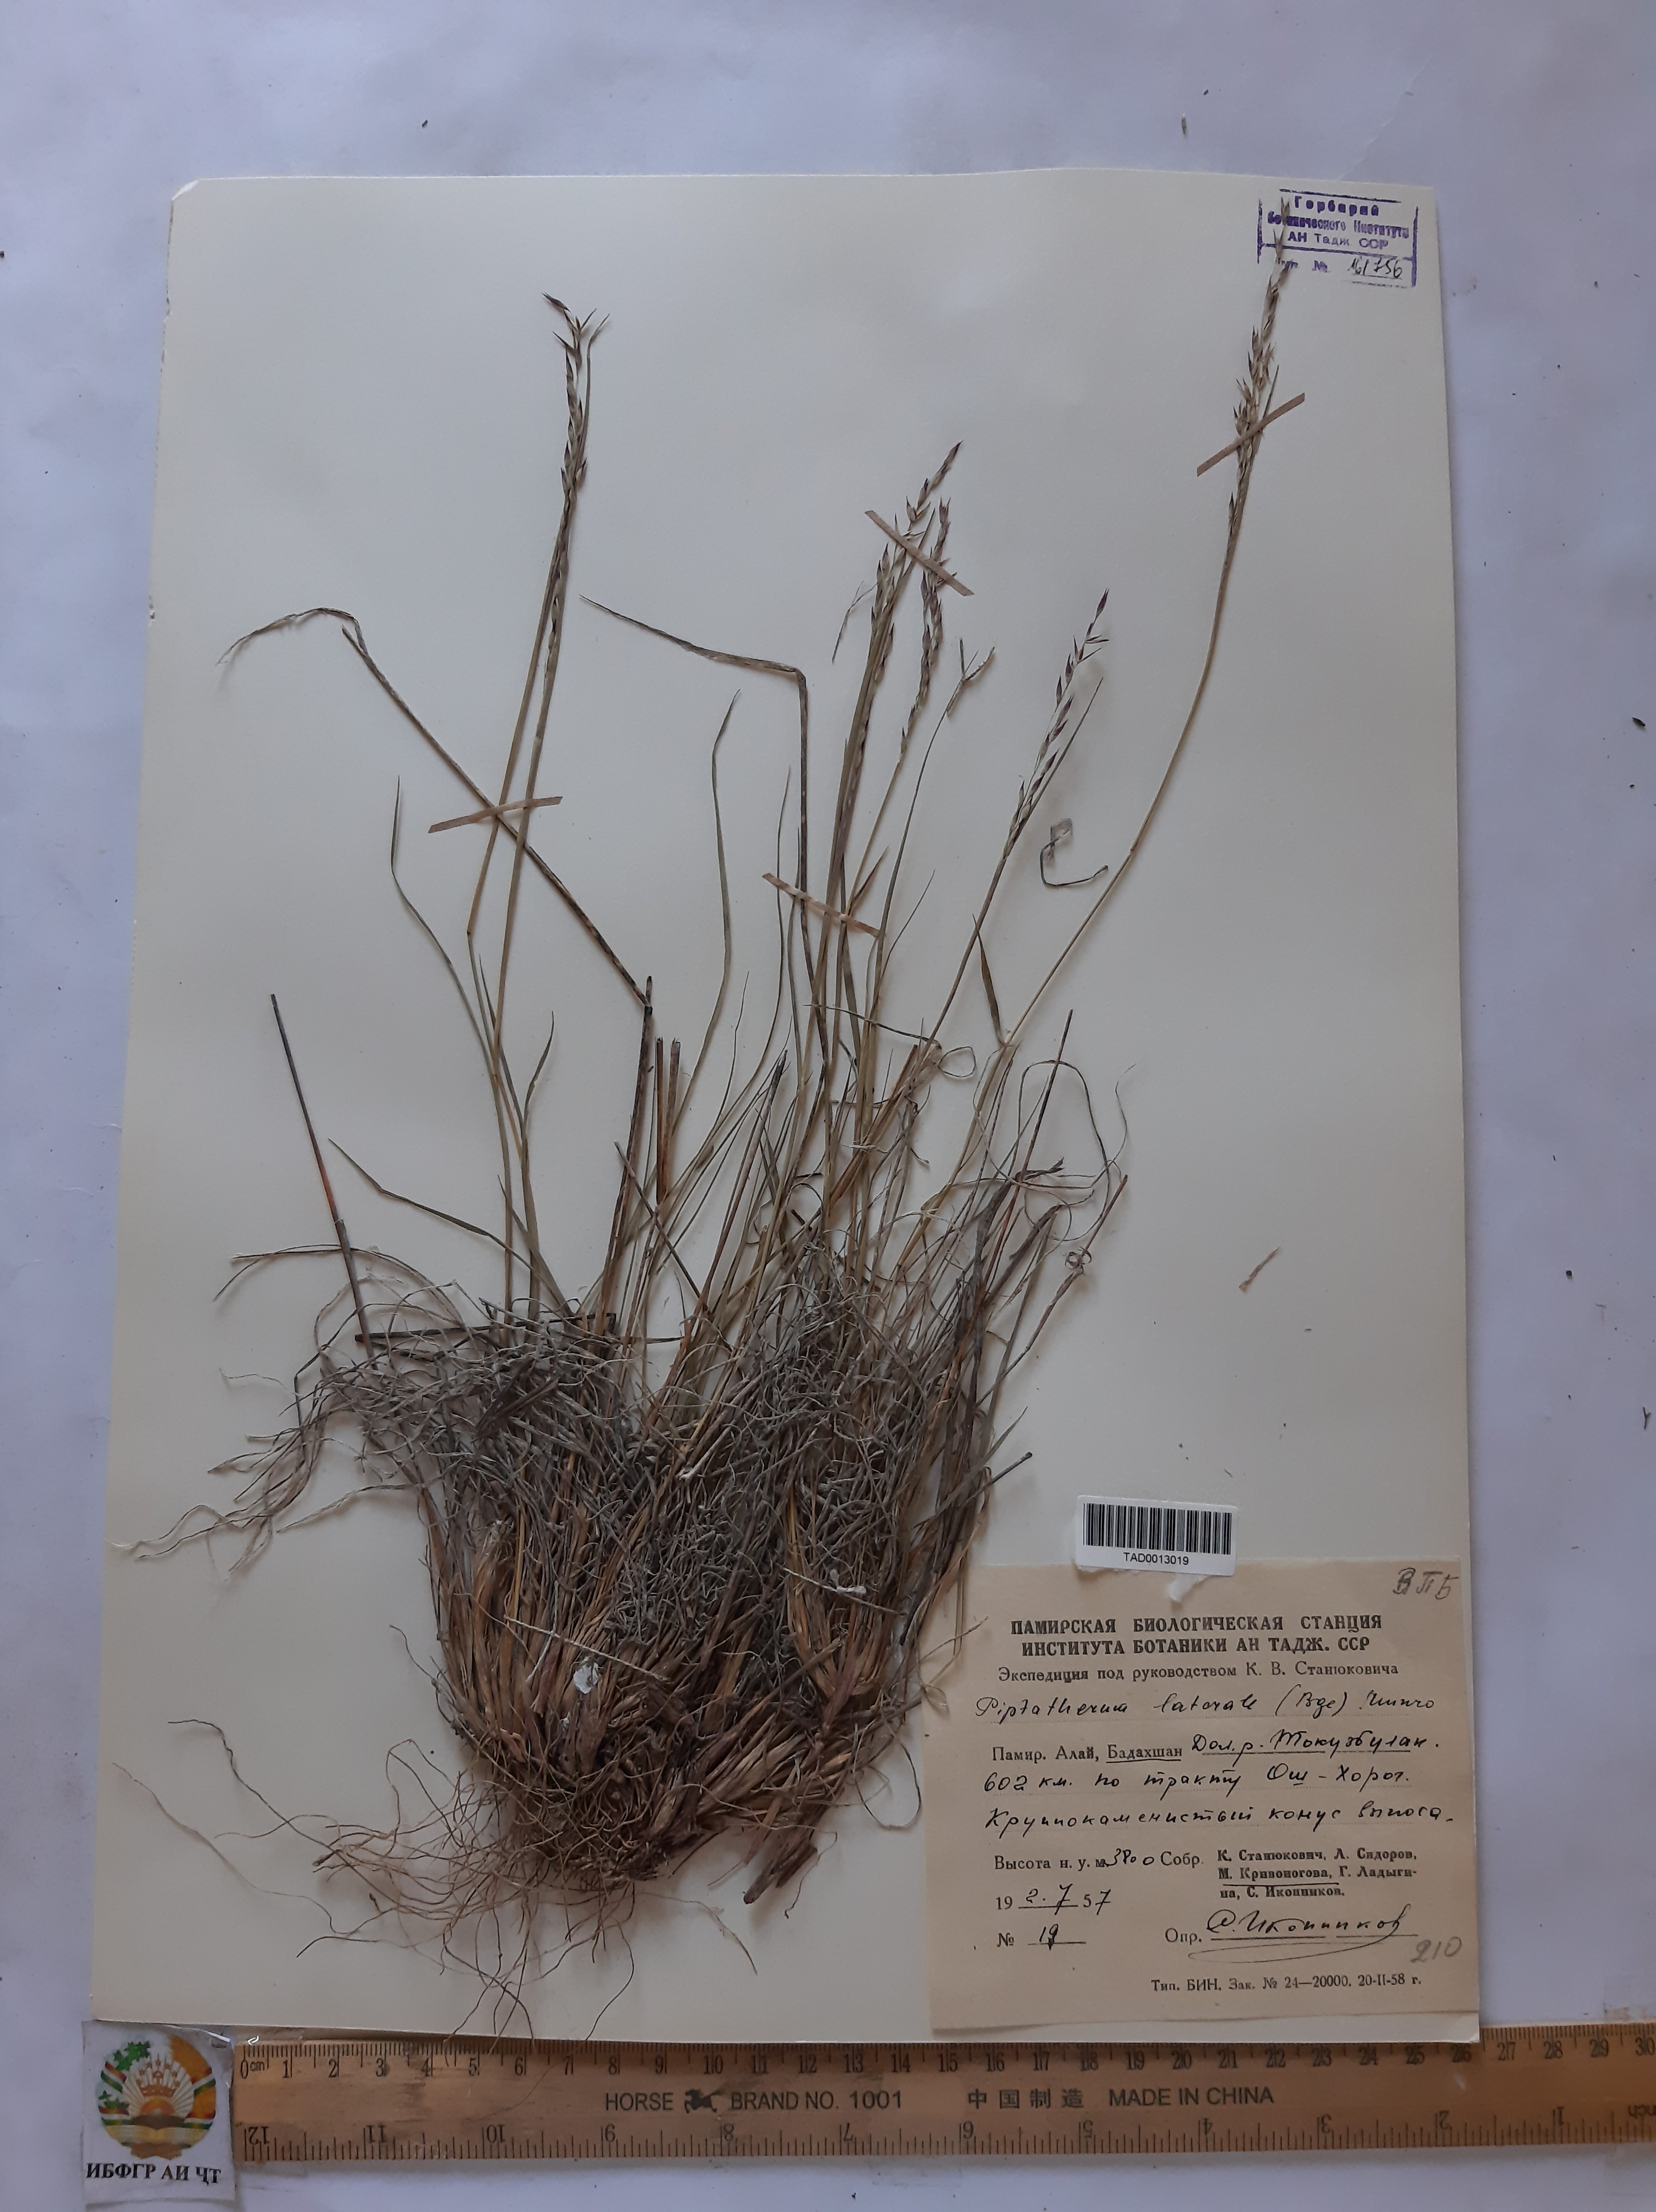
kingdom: Plantae
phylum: Tracheophyta
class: Liliopsida
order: Poales
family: Poaceae
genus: Piptatherum
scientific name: Piptatherum laterale
